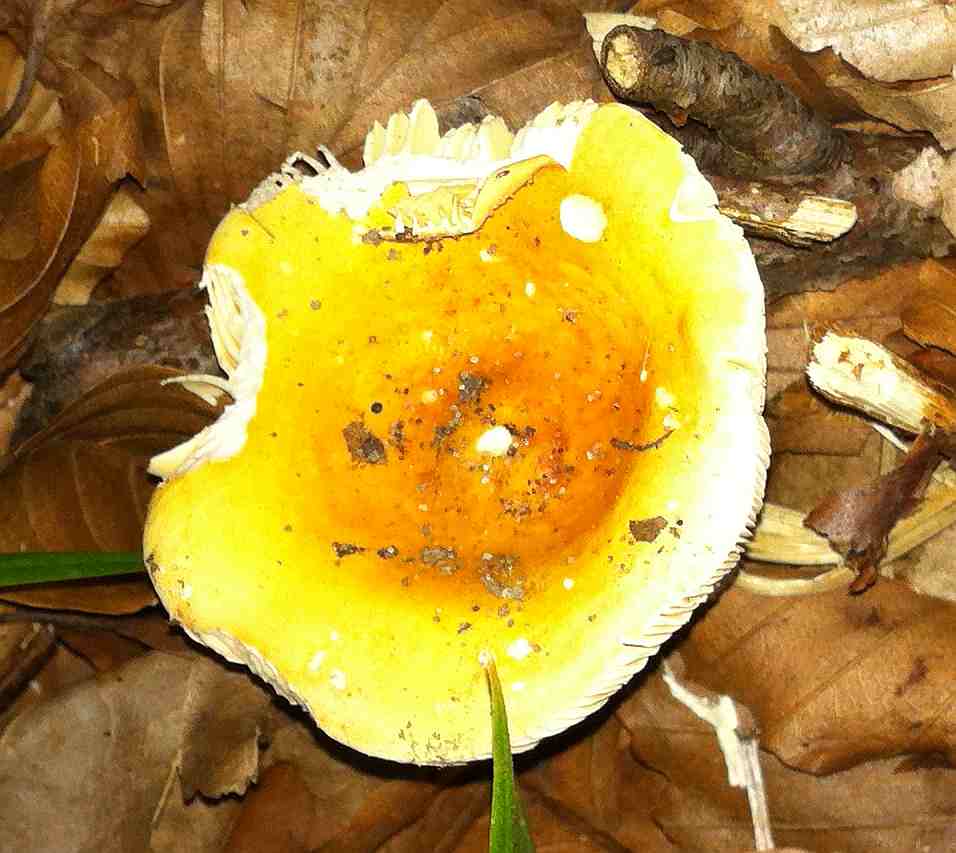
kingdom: Fungi
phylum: Basidiomycota
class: Agaricomycetes
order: Russulales
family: Russulaceae
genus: Russula
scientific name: Russula risigallina
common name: abrikos-skørhat
